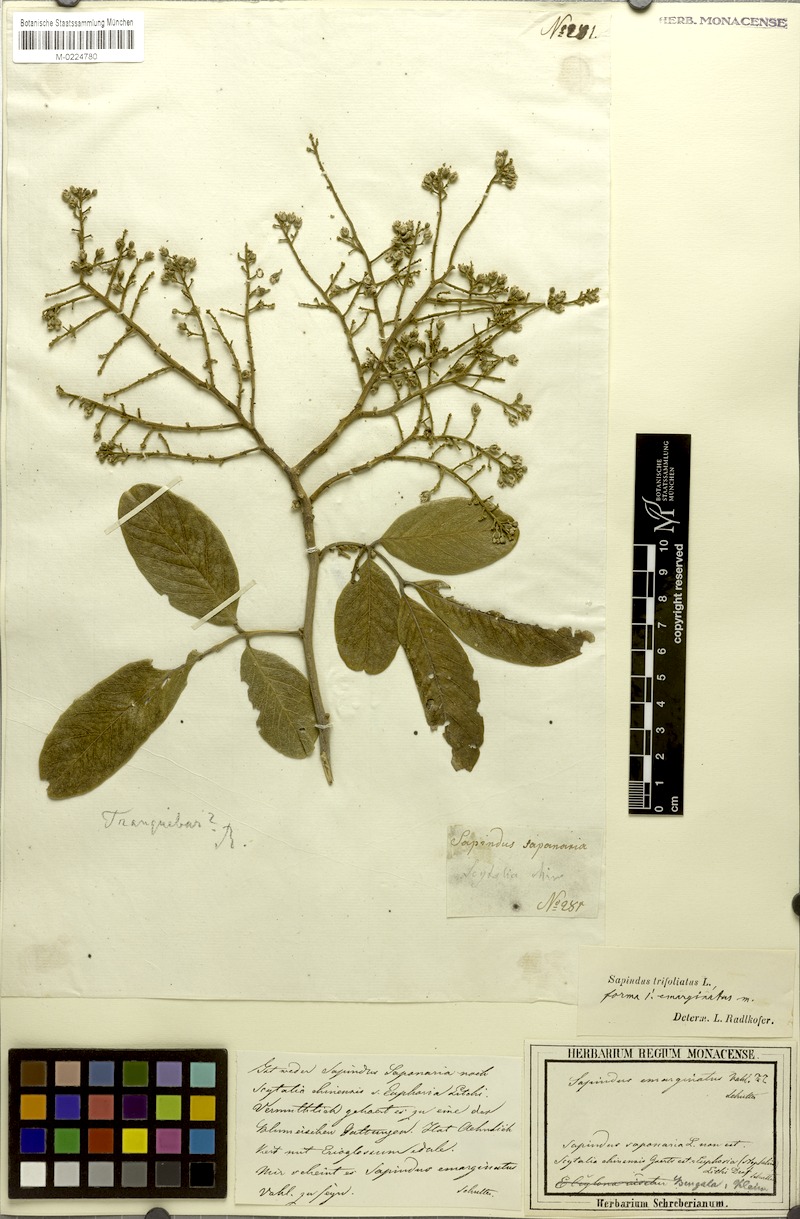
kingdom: Plantae
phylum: Tracheophyta
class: Magnoliopsida
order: Sapindales
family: Sapindaceae
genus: Sapindus
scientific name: Sapindus trifoliatus
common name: Three-leaf soapberry
